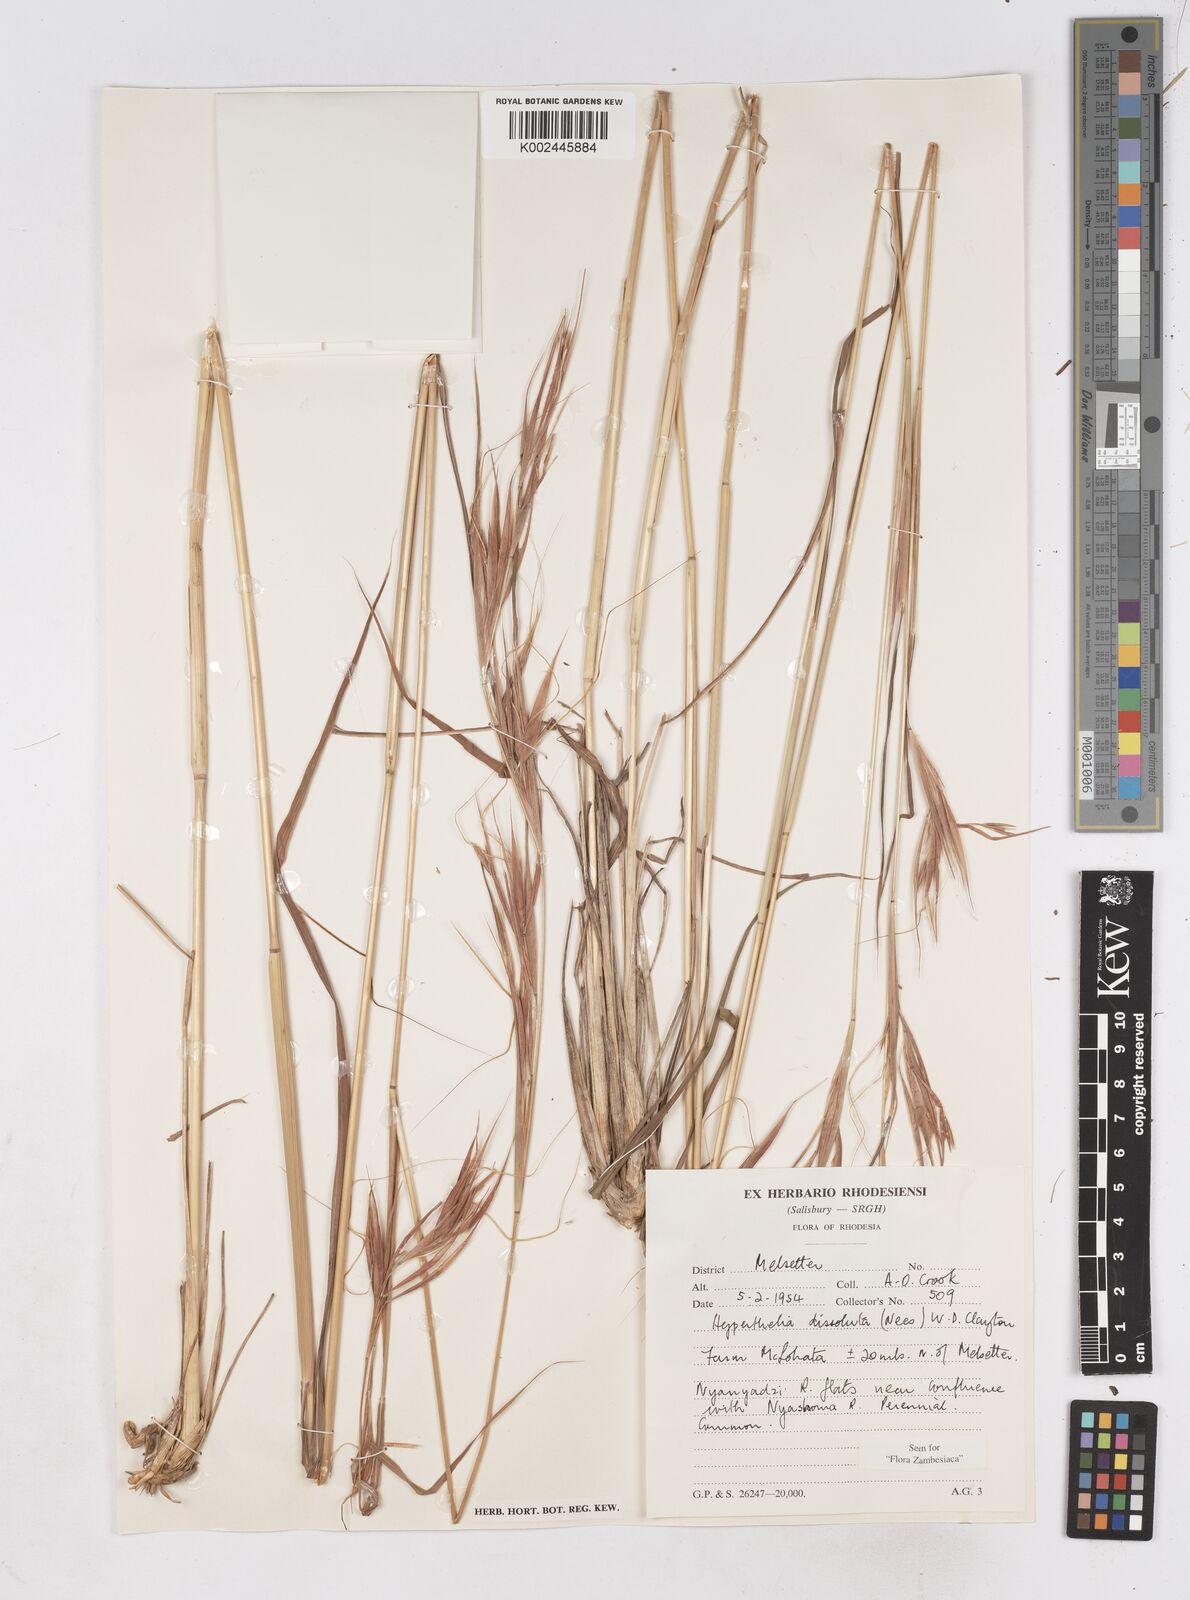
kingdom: Plantae
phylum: Tracheophyta
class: Liliopsida
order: Poales
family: Poaceae
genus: Hyperthelia
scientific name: Hyperthelia dissoluta
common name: Yellow thatching grass
